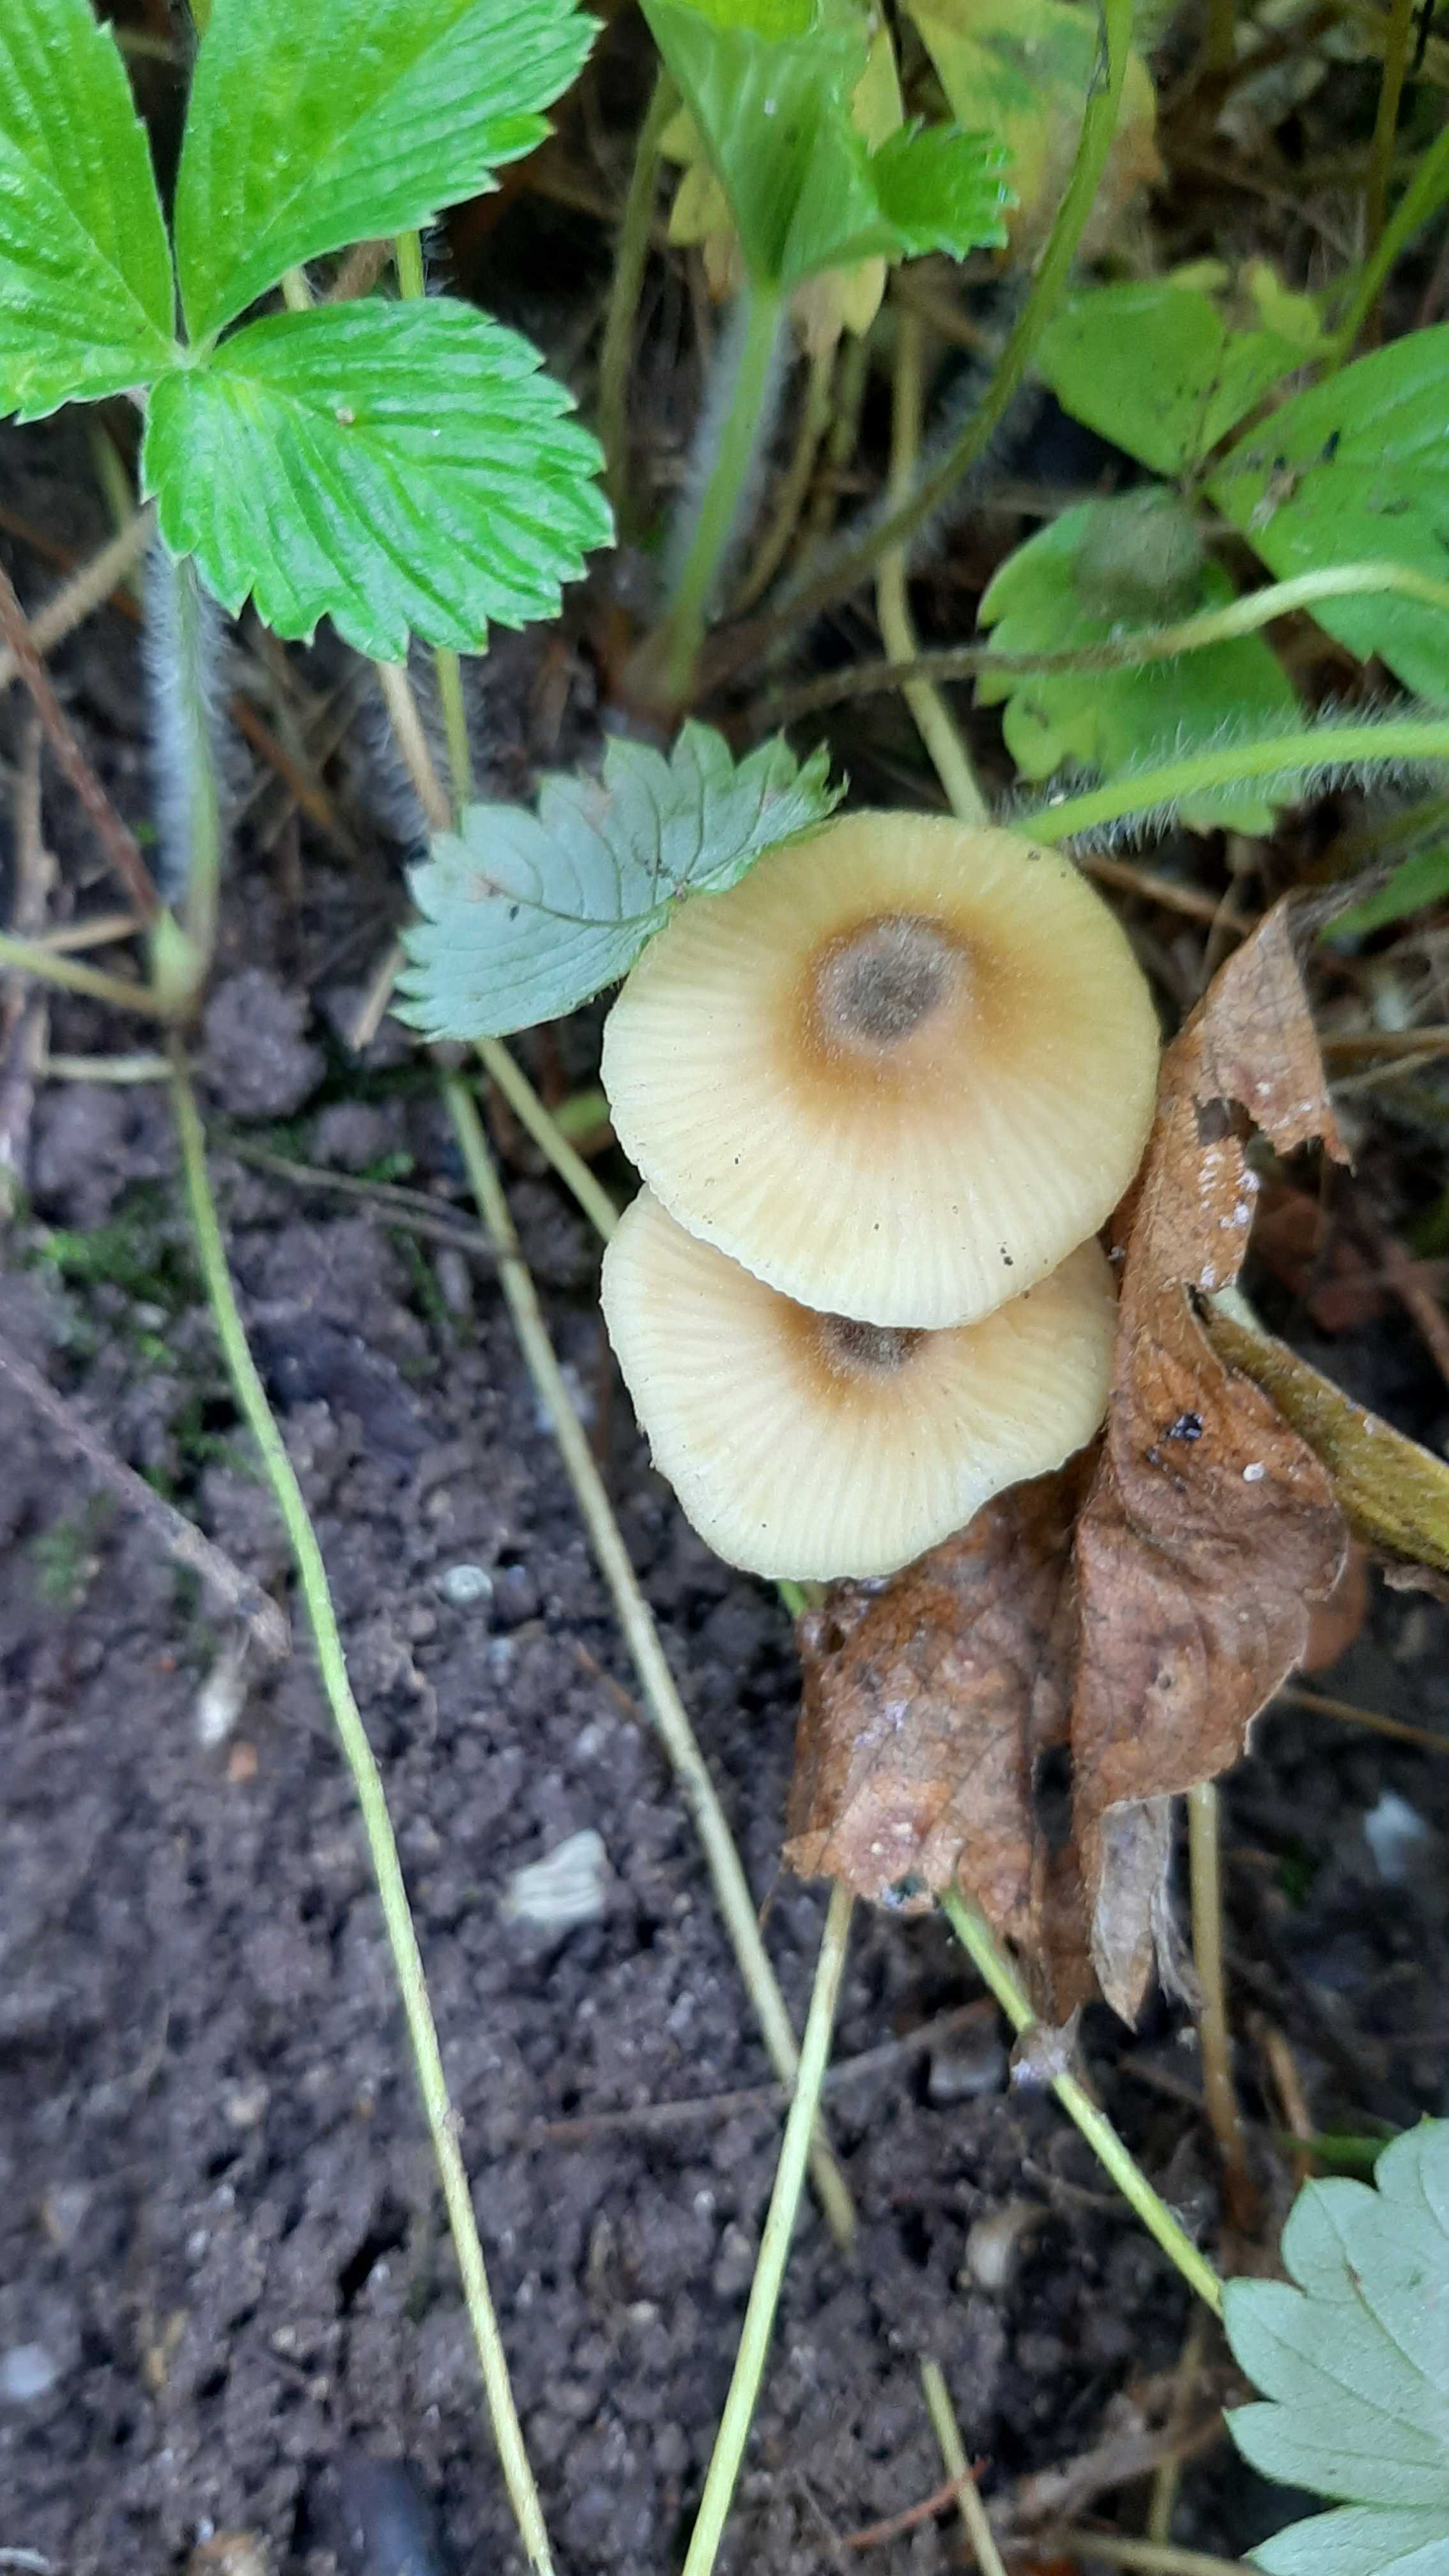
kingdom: Fungi
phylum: Basidiomycota
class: Agaricomycetes
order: Agaricales
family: Entolomataceae
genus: Entoloma
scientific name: Entoloma pleopodium
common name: duftende rødblad
